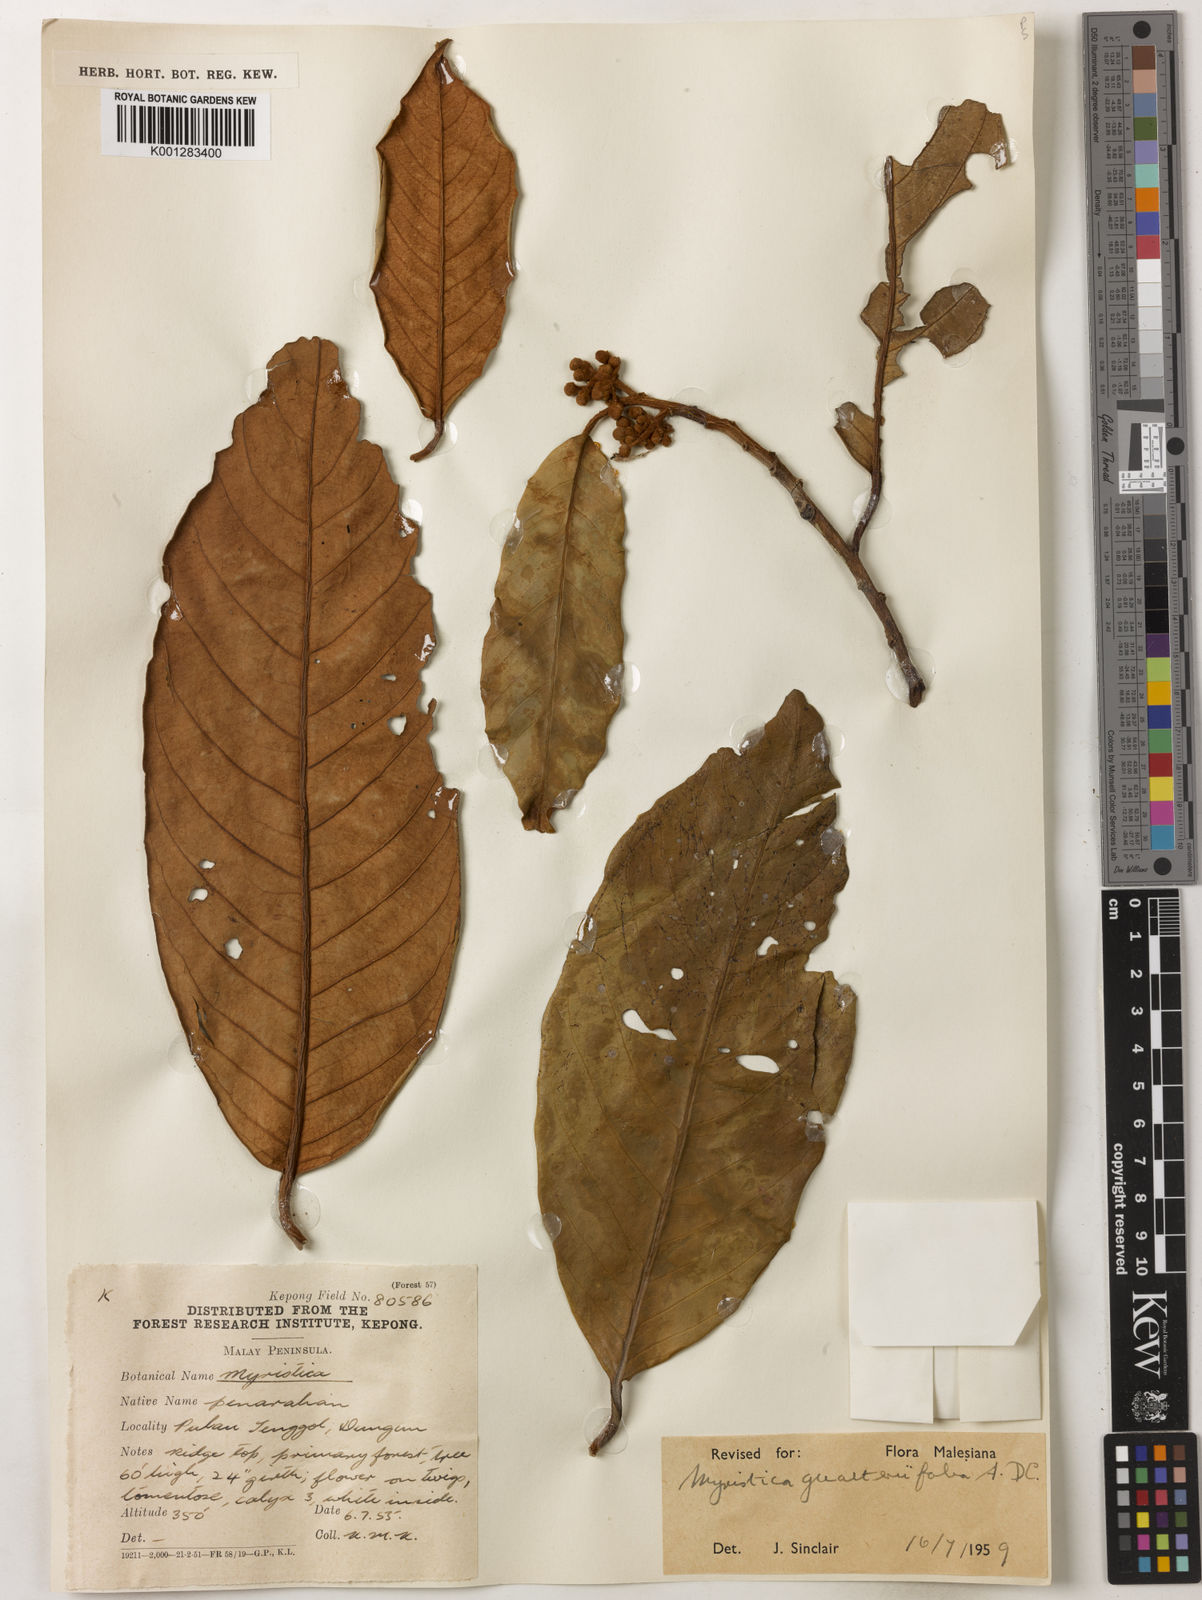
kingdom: Plantae
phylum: Tracheophyta
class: Magnoliopsida
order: Magnoliales
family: Myristicaceae
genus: Myristica
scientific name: Myristica
